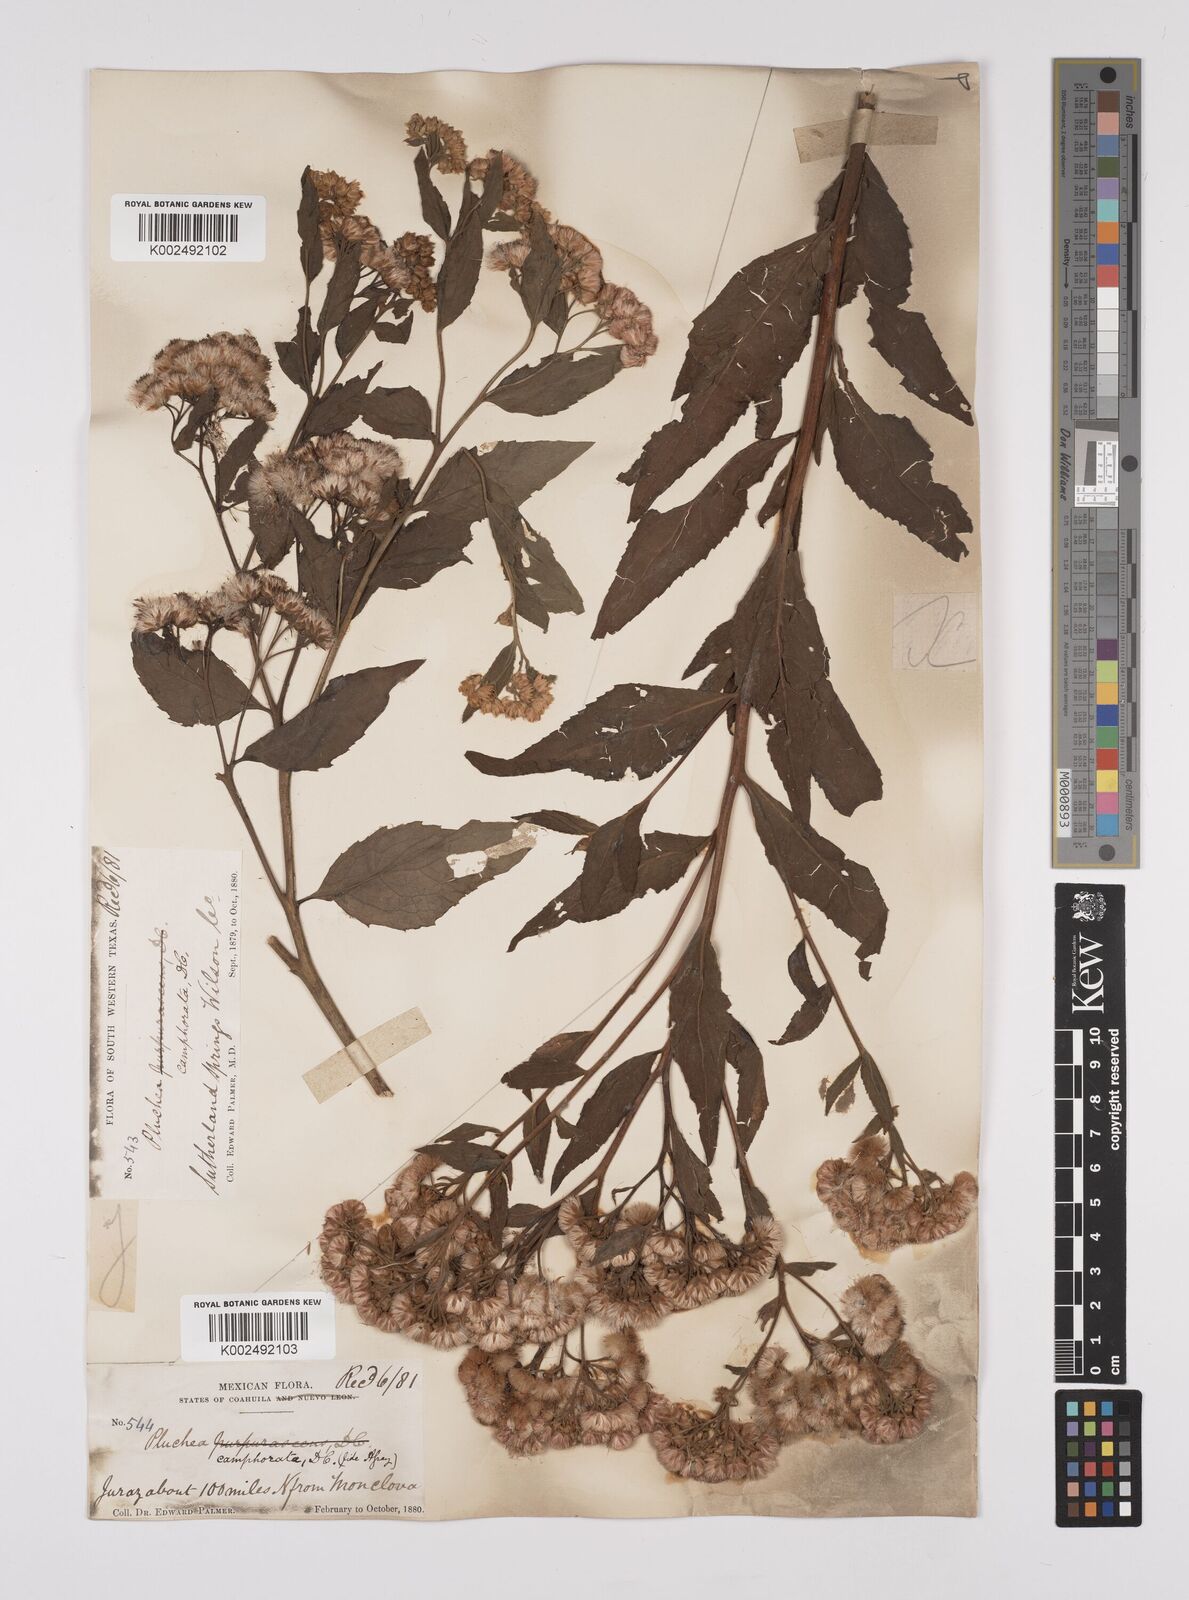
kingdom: Plantae
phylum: Tracheophyta
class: Magnoliopsida
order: Asterales
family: Asteraceae
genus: Pluchea
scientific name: Pluchea camphorata
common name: Camphor pluchea
